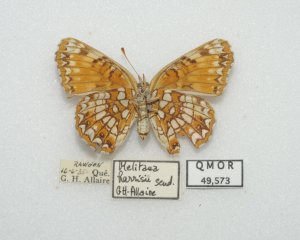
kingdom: Animalia
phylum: Arthropoda
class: Insecta
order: Lepidoptera
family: Nymphalidae
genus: Chlosyne
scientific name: Chlosyne harrisii
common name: Harris's Checkerspot
